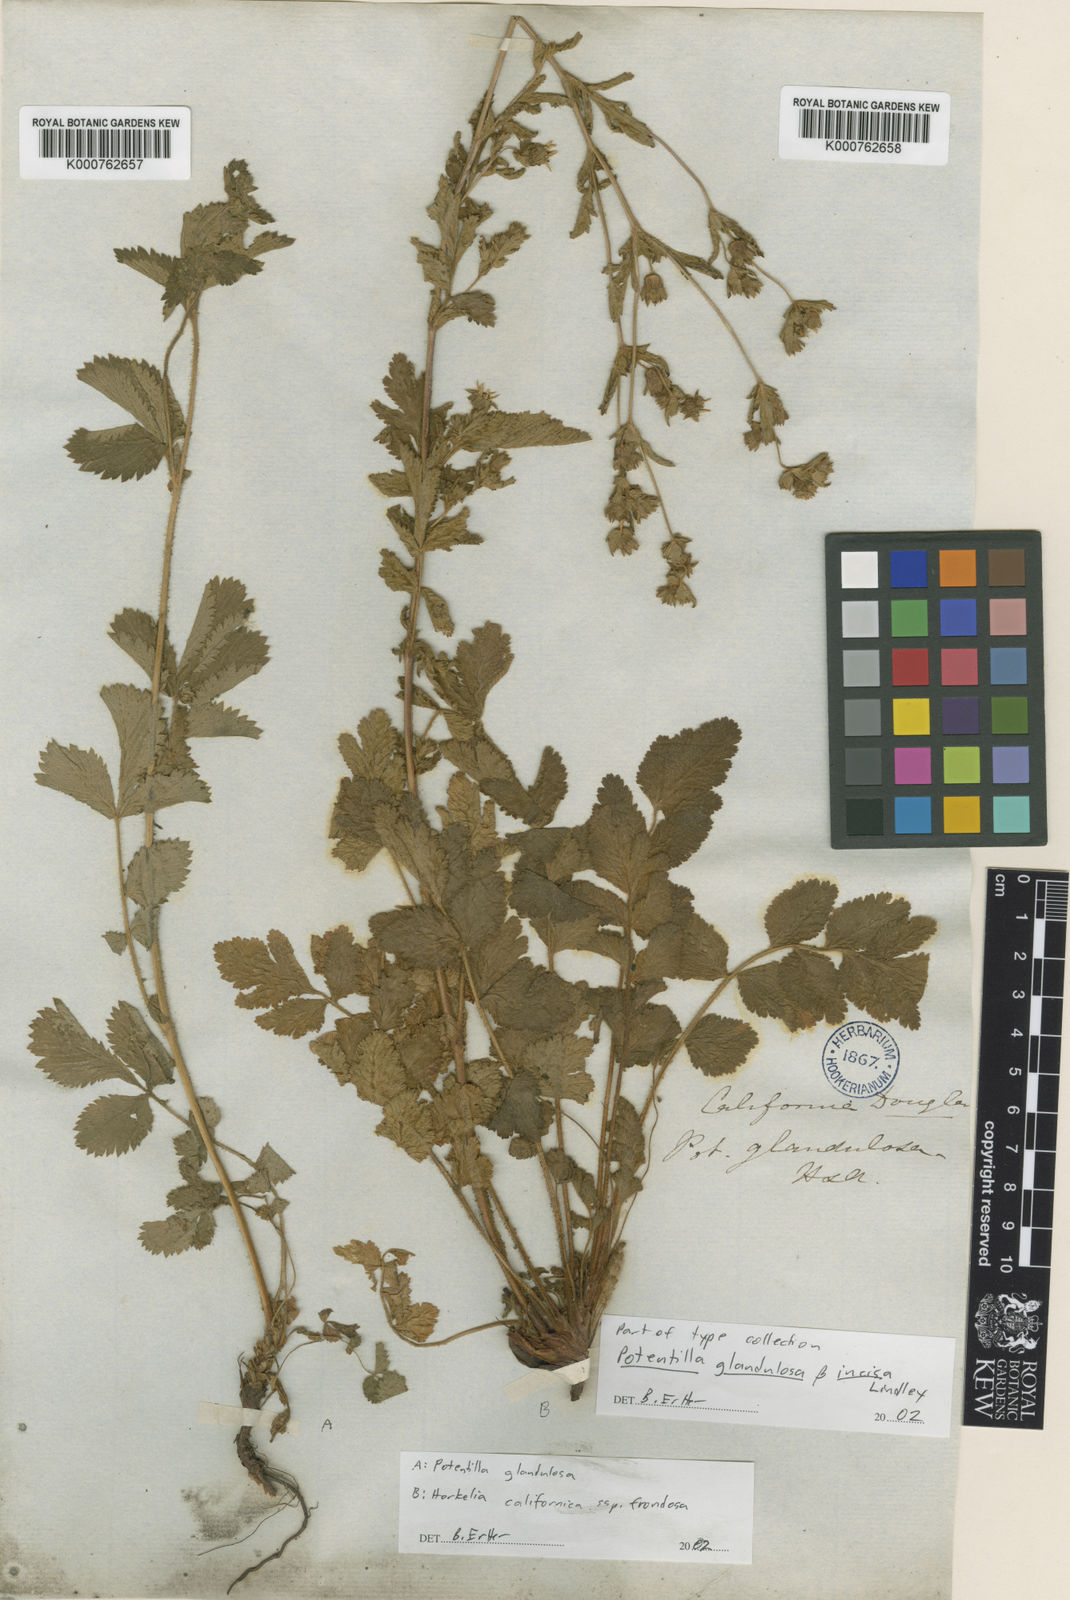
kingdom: Plantae
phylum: Tracheophyta
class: Magnoliopsida
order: Rosales
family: Rosaceae
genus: Drymocallis
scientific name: Drymocallis glandulosa
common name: Sticky cinquefoil
